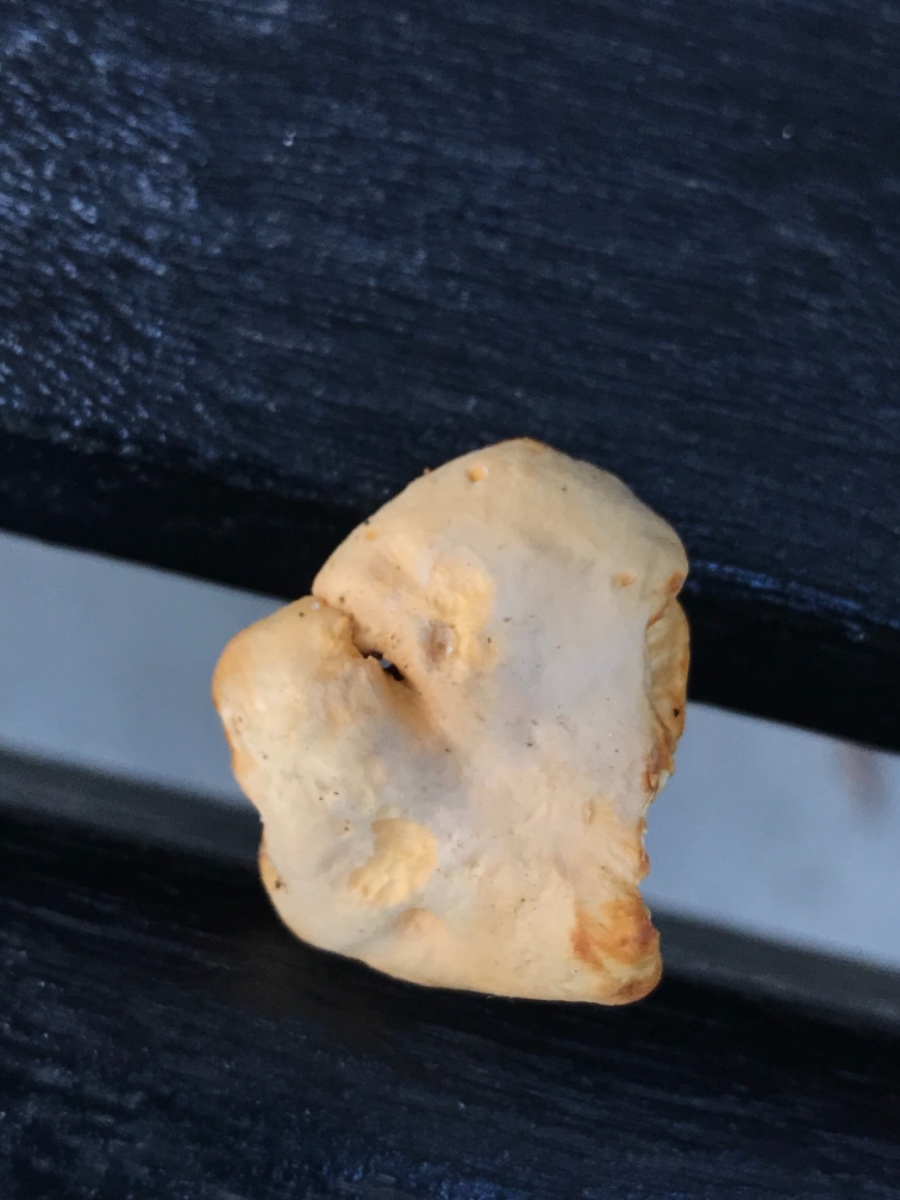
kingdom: Fungi
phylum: Basidiomycota
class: Agaricomycetes
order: Cantharellales
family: Hydnaceae
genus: Cantharellus
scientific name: Cantharellus pallens
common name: bleg kantarel
